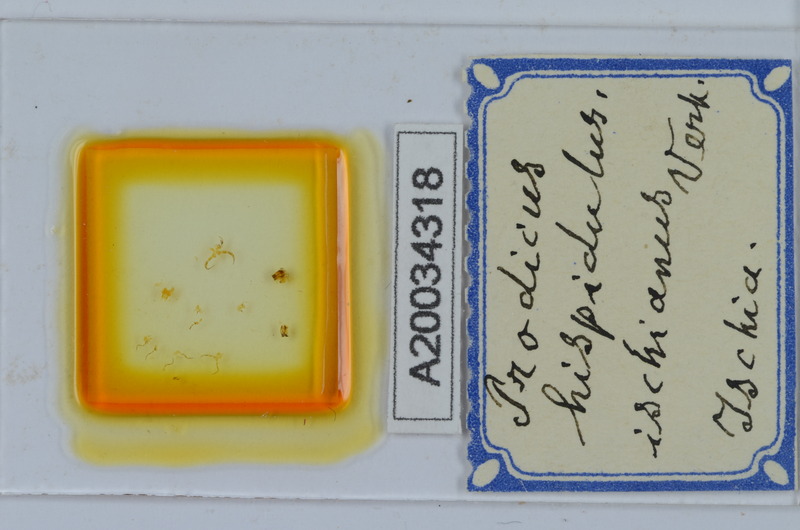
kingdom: Animalia
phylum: Arthropoda
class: Diplopoda
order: Chordeumatida
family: Anthroleucosomatidae
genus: Anamastigona
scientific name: Anamastigona hispidula
